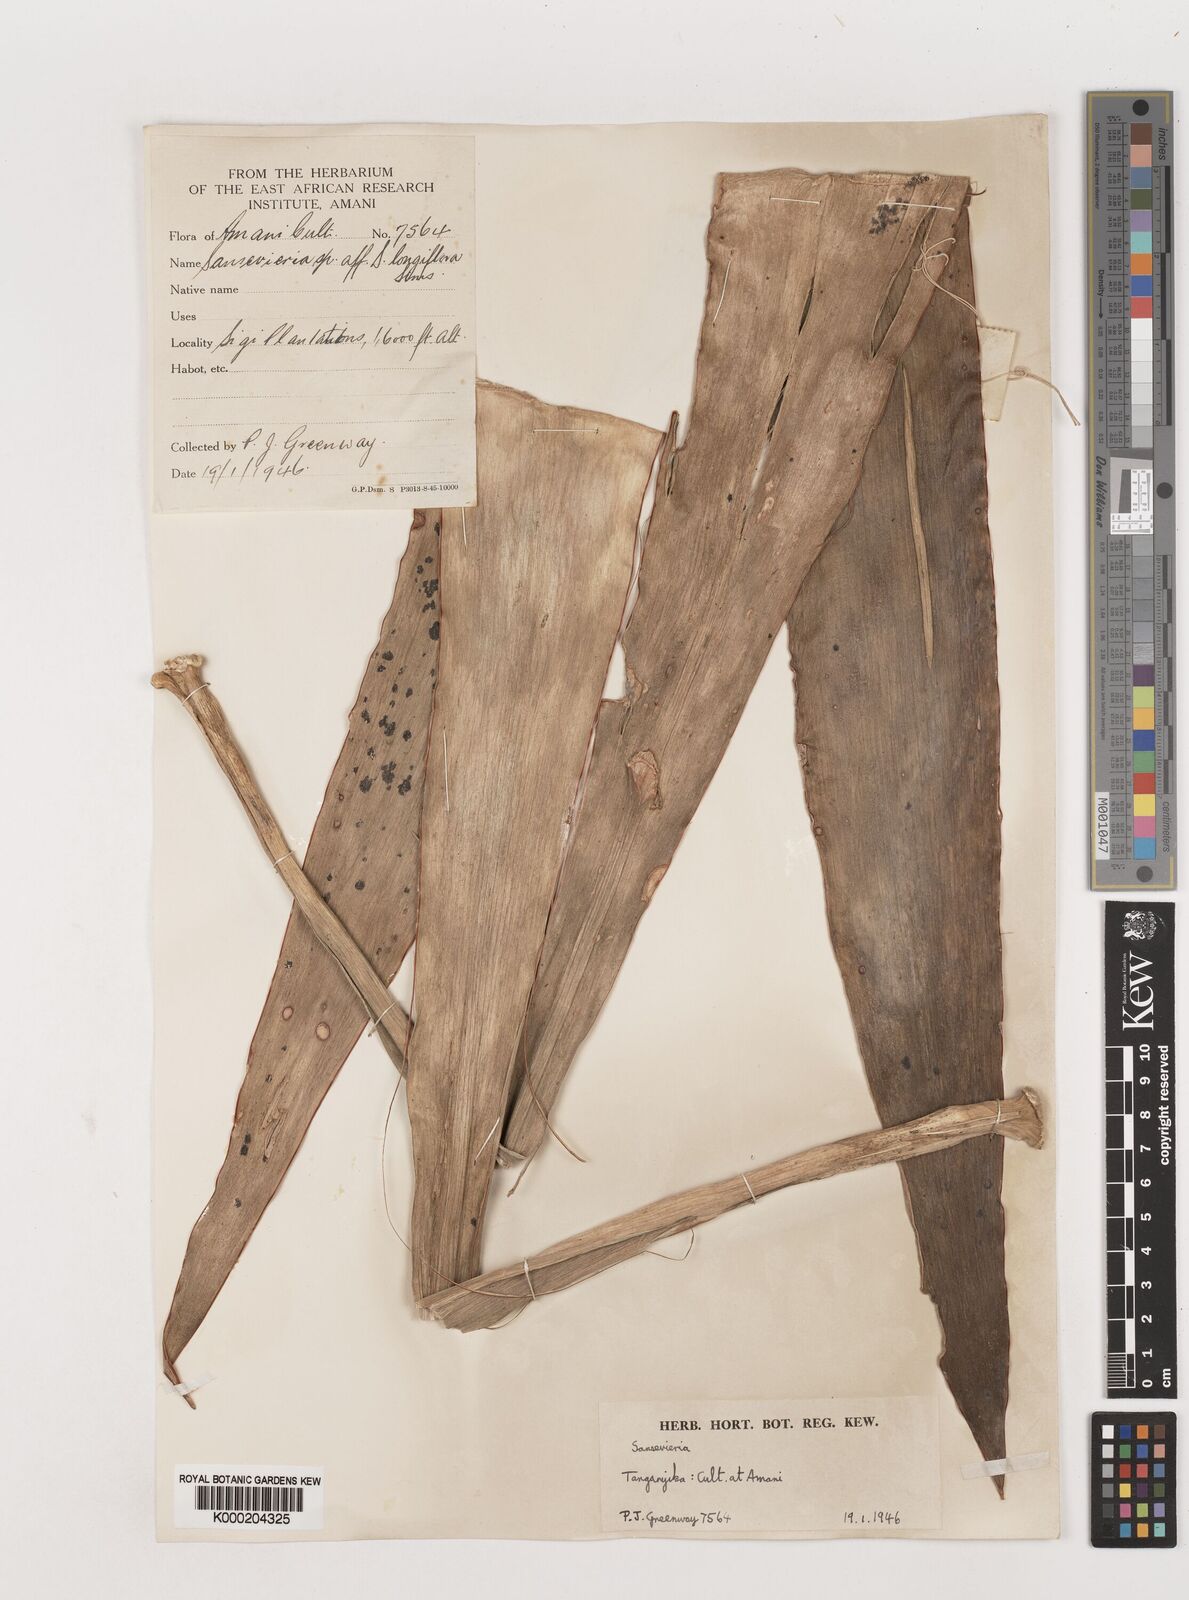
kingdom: Plantae
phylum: Tracheophyta
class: Liliopsida
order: Asparagales
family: Asparagaceae
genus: Dracaena
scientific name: Dracaena testudinea
